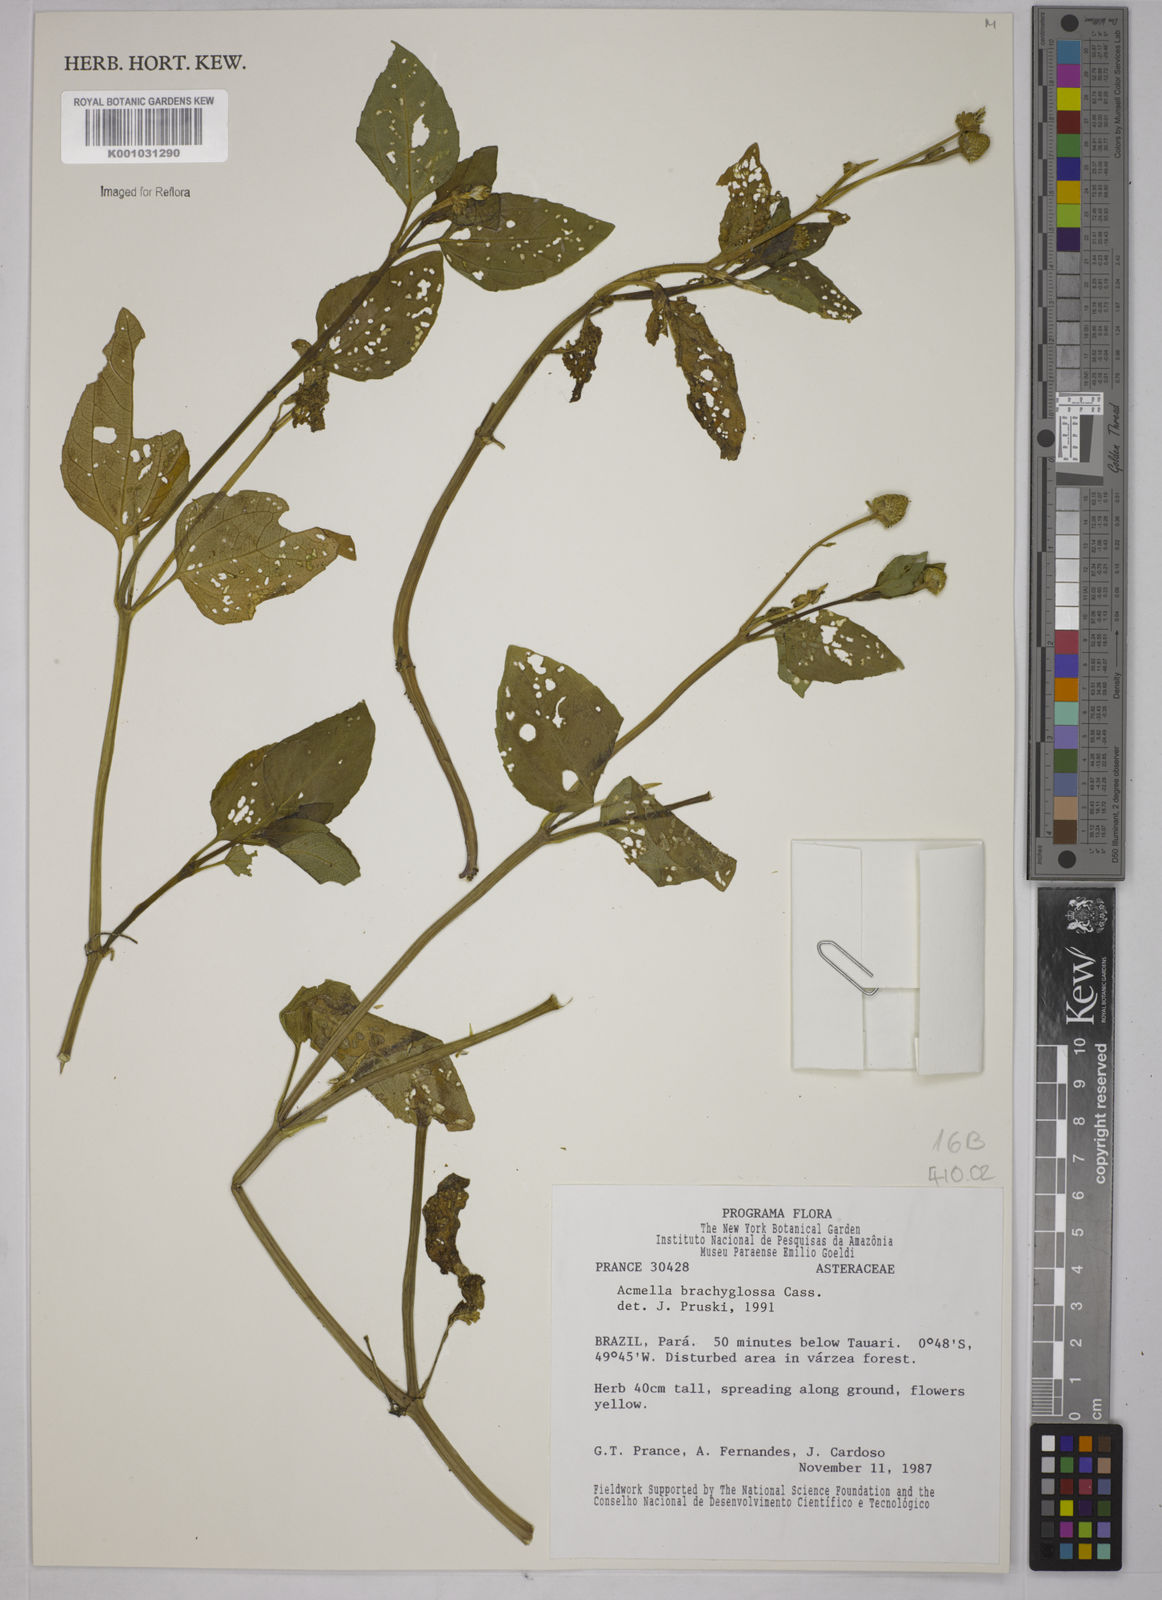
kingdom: Plantae
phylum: Tracheophyta
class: Magnoliopsida
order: Asterales
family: Asteraceae
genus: Acmella
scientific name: Acmella brachyglossa
